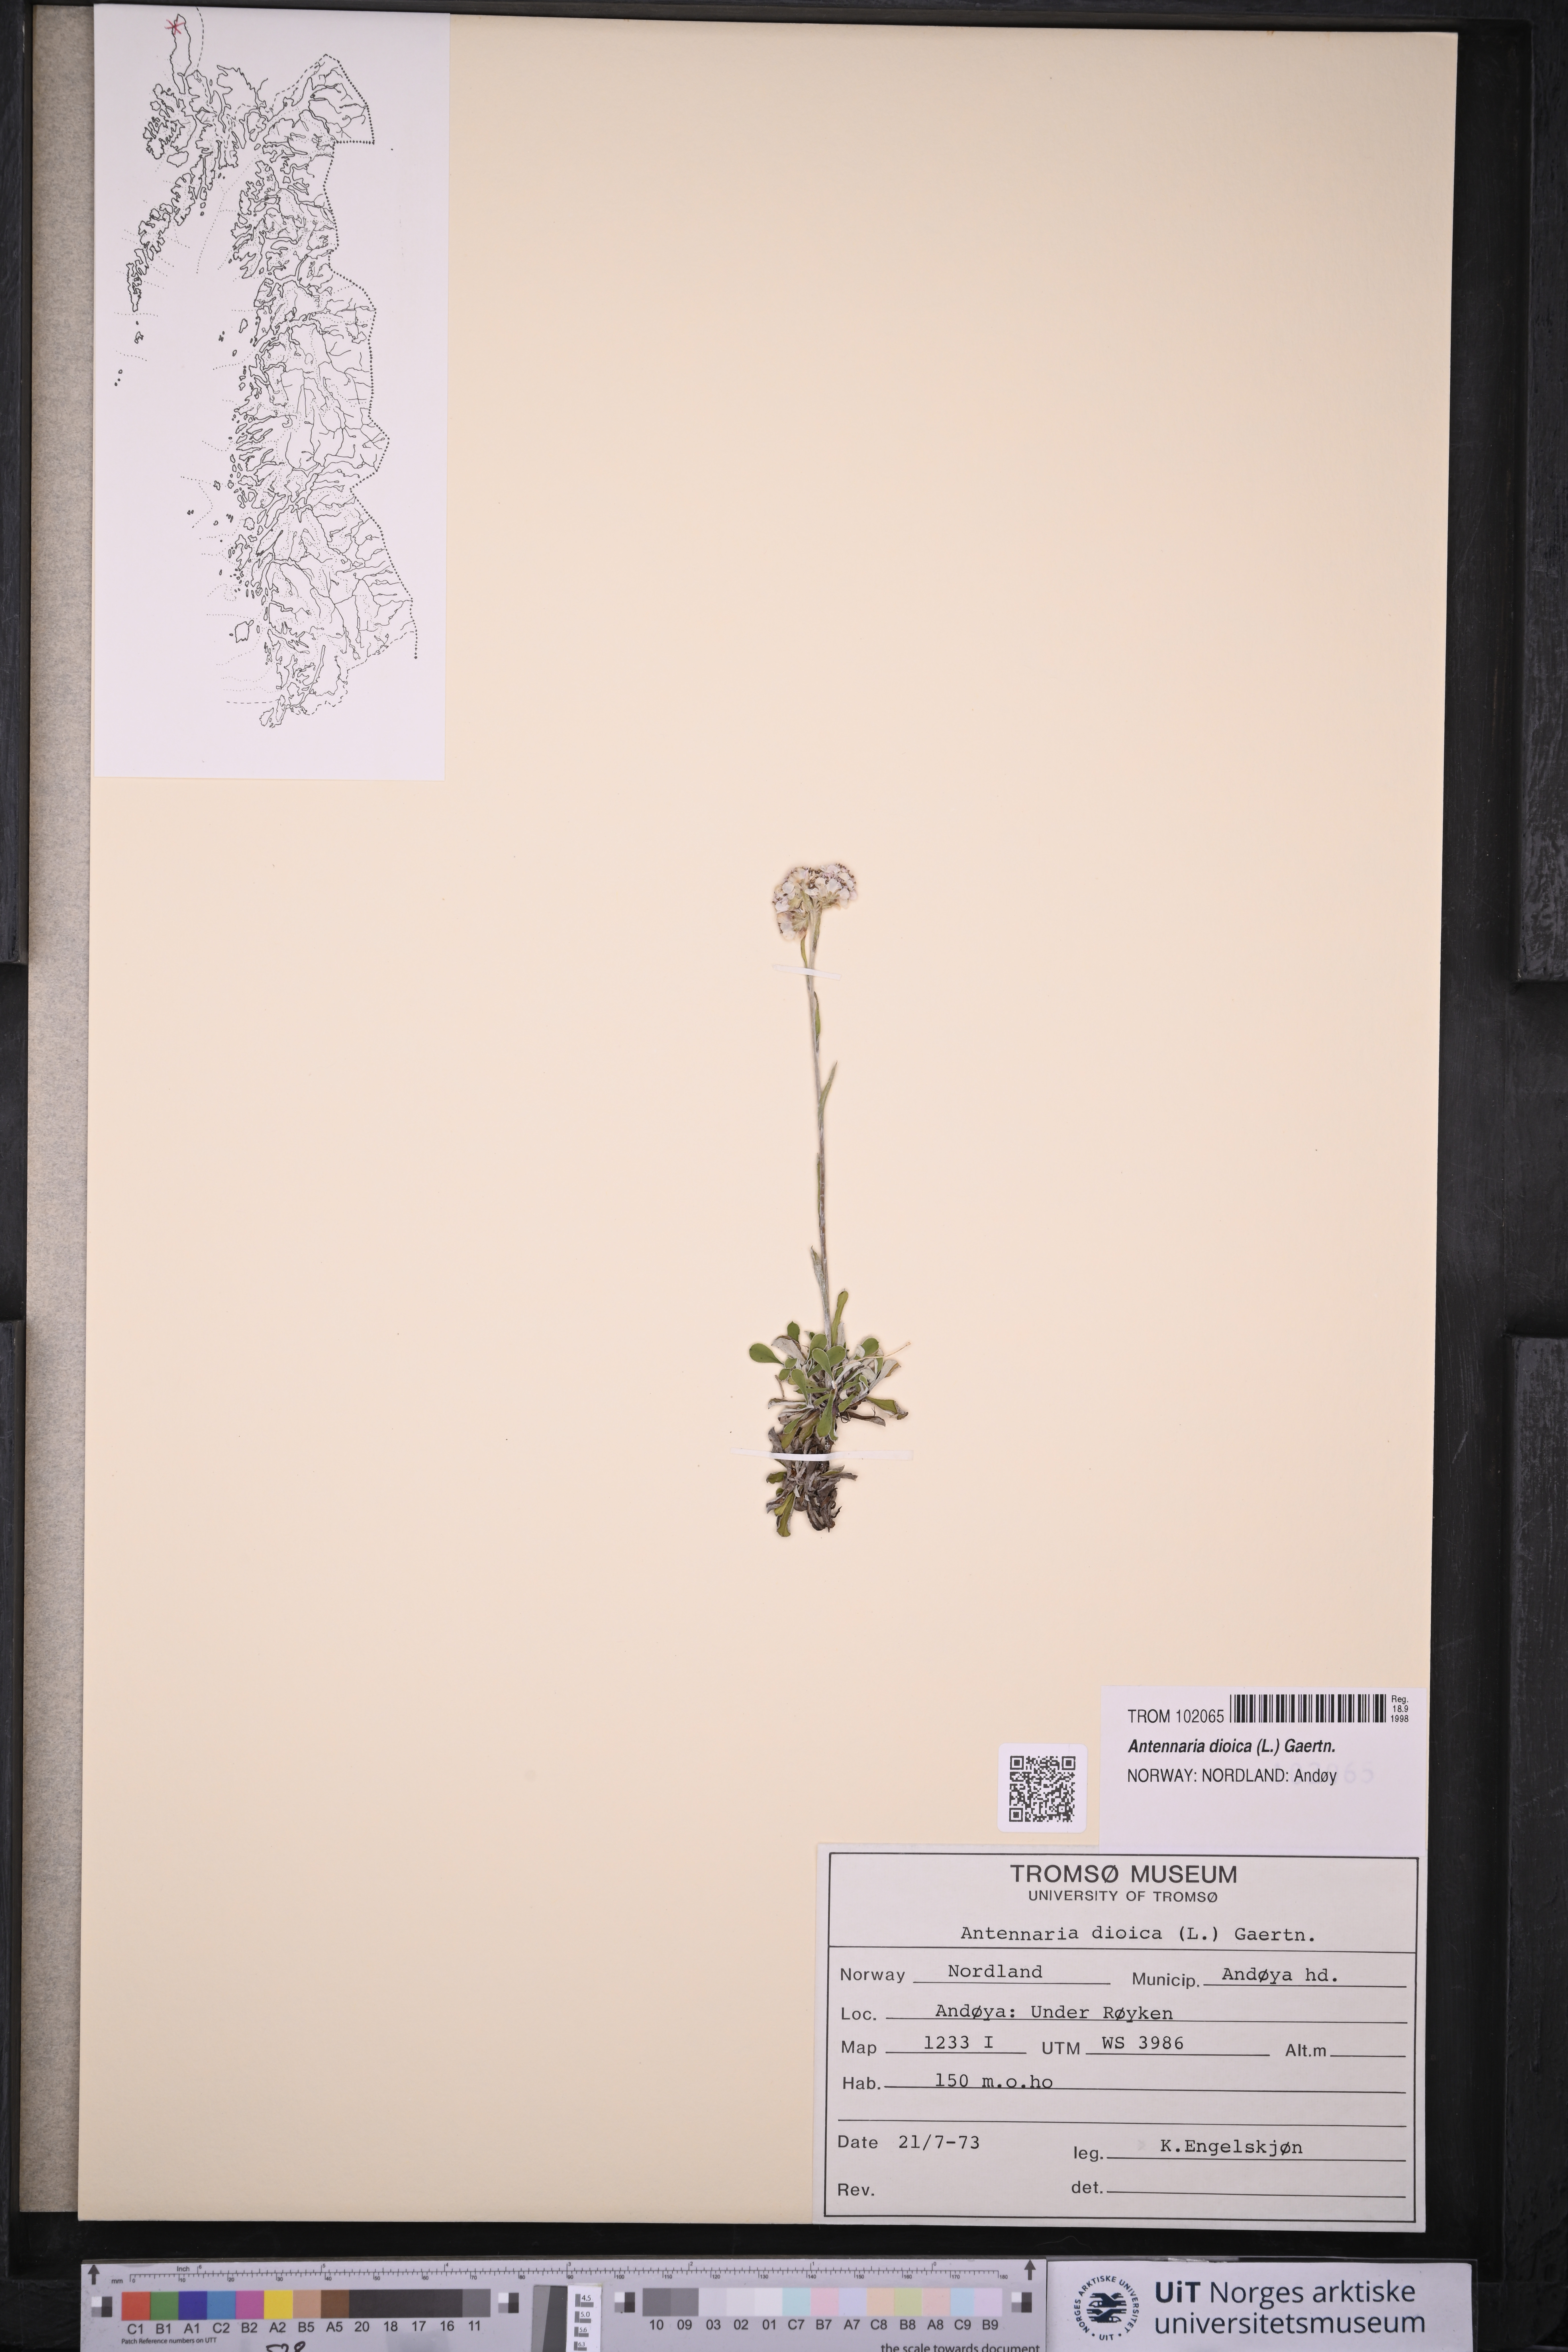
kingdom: Plantae
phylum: Tracheophyta
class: Magnoliopsida
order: Asterales
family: Asteraceae
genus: Antennaria
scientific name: Antennaria dioica
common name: Mountain everlasting
